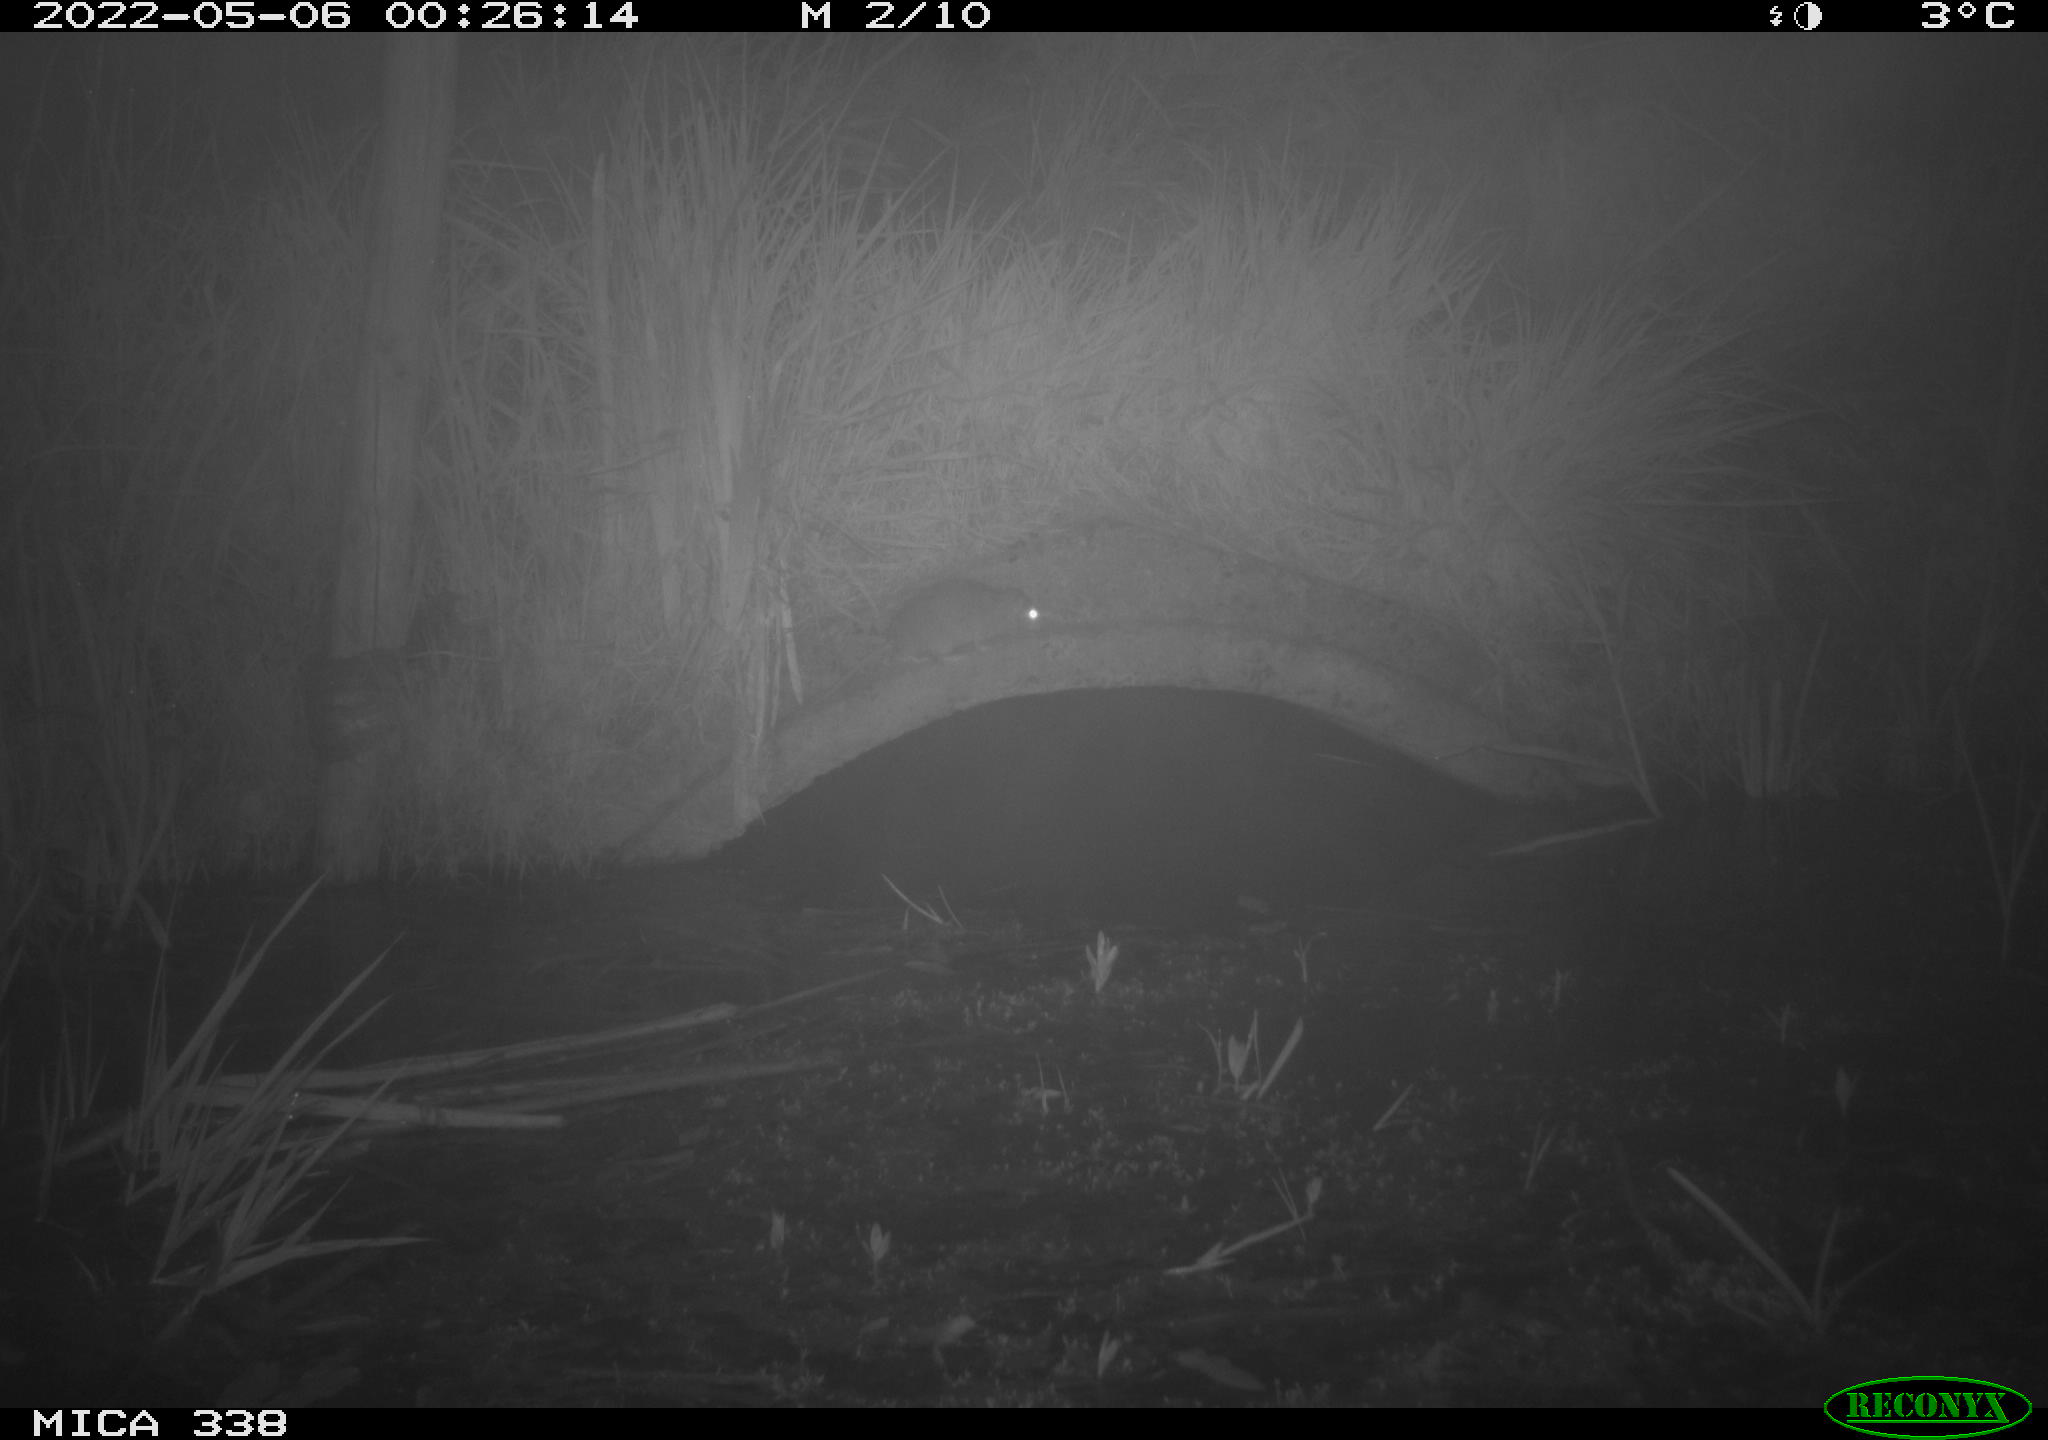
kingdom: Animalia
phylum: Chordata
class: Mammalia
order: Rodentia
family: Muridae
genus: Rattus
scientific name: Rattus norvegicus
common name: Brown rat
